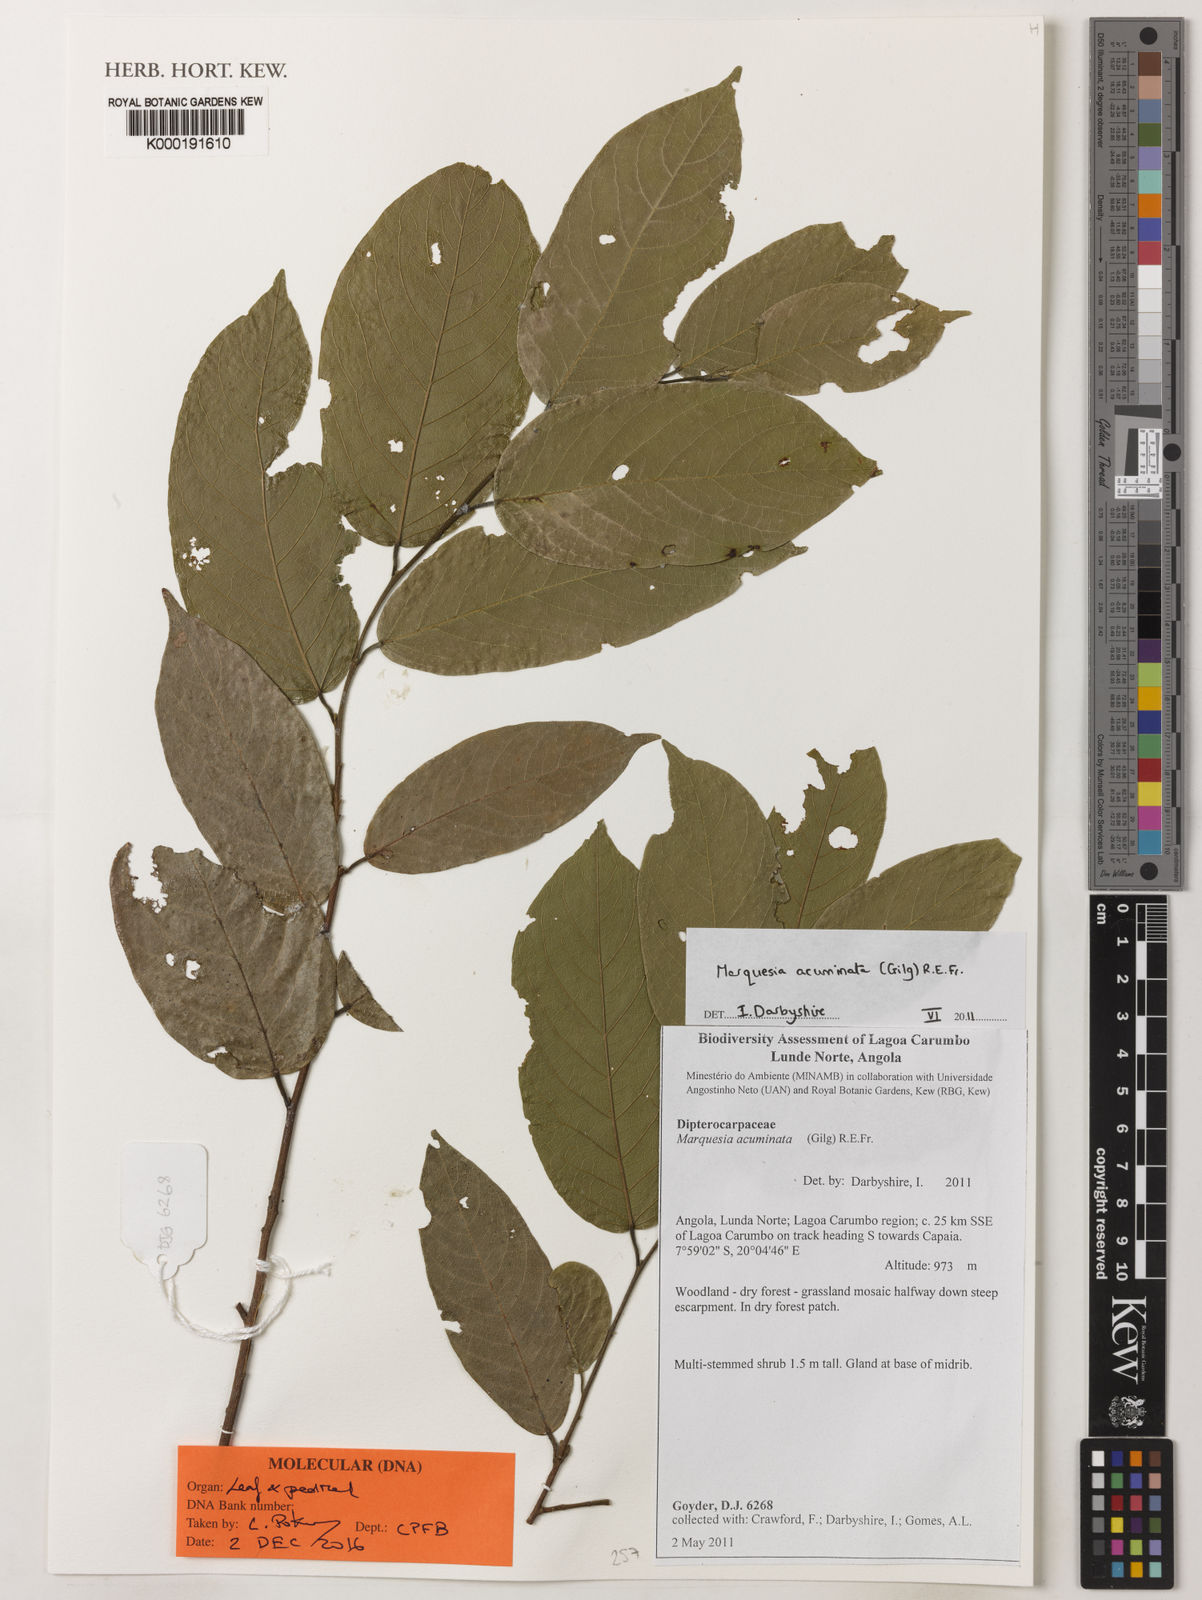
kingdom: Plantae
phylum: Tracheophyta
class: Magnoliopsida
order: Malvales
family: Dipterocarpaceae
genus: Marquesia
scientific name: Marquesia acuminata
